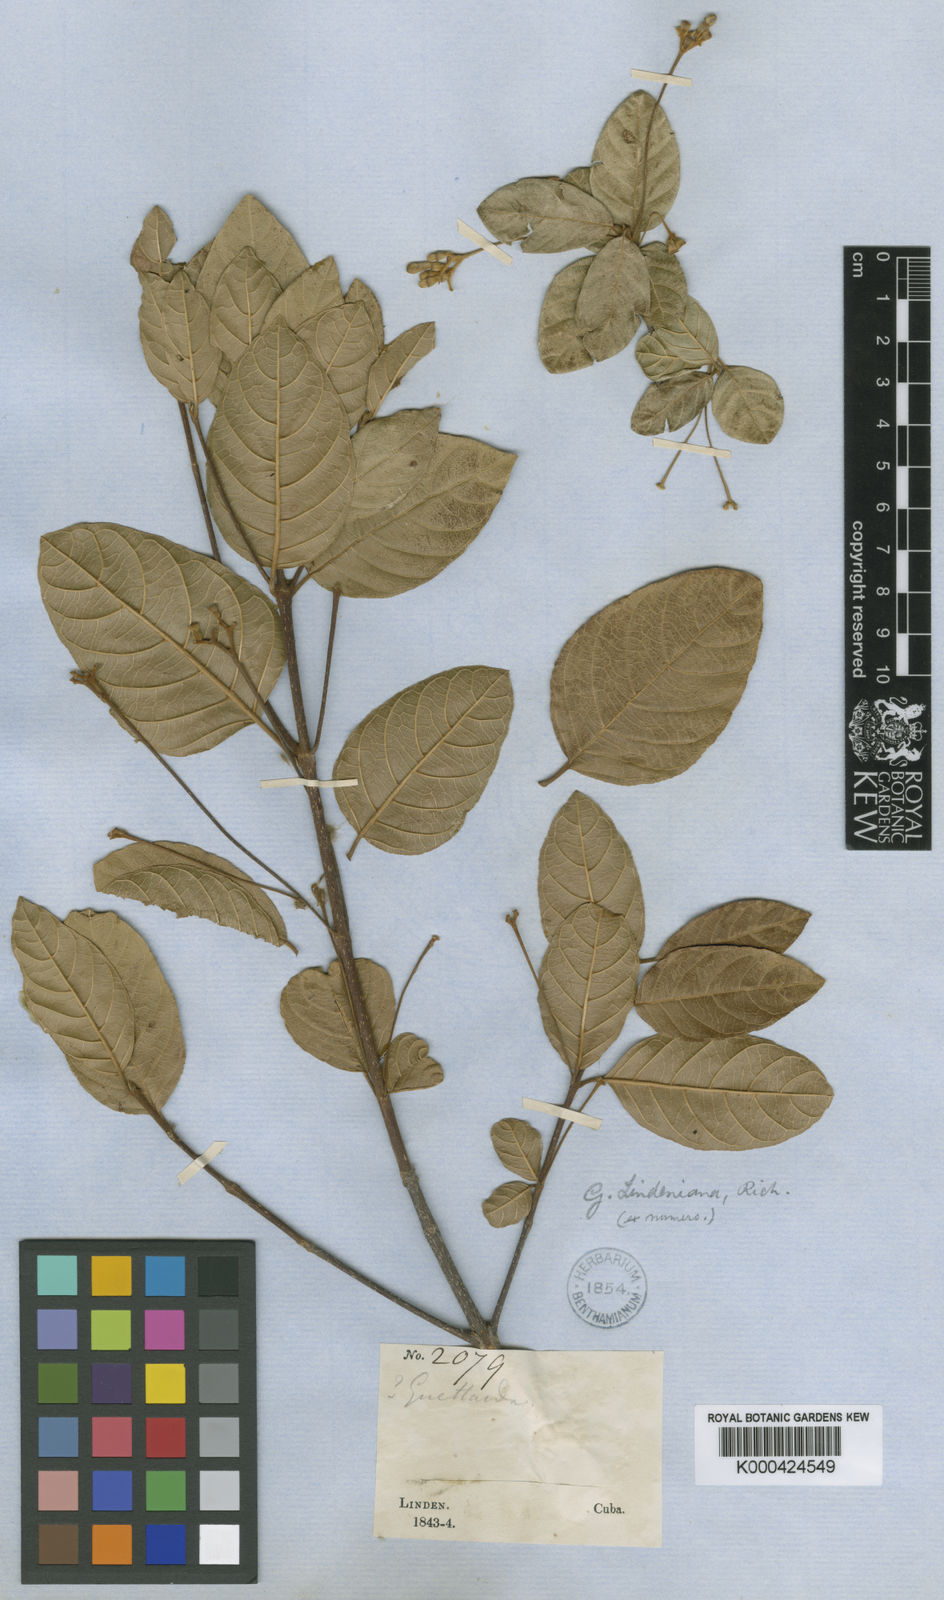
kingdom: Plantae
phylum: Tracheophyta
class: Magnoliopsida
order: Gentianales
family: Rubiaceae
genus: Guettarda
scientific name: Guettarda lindeniana
